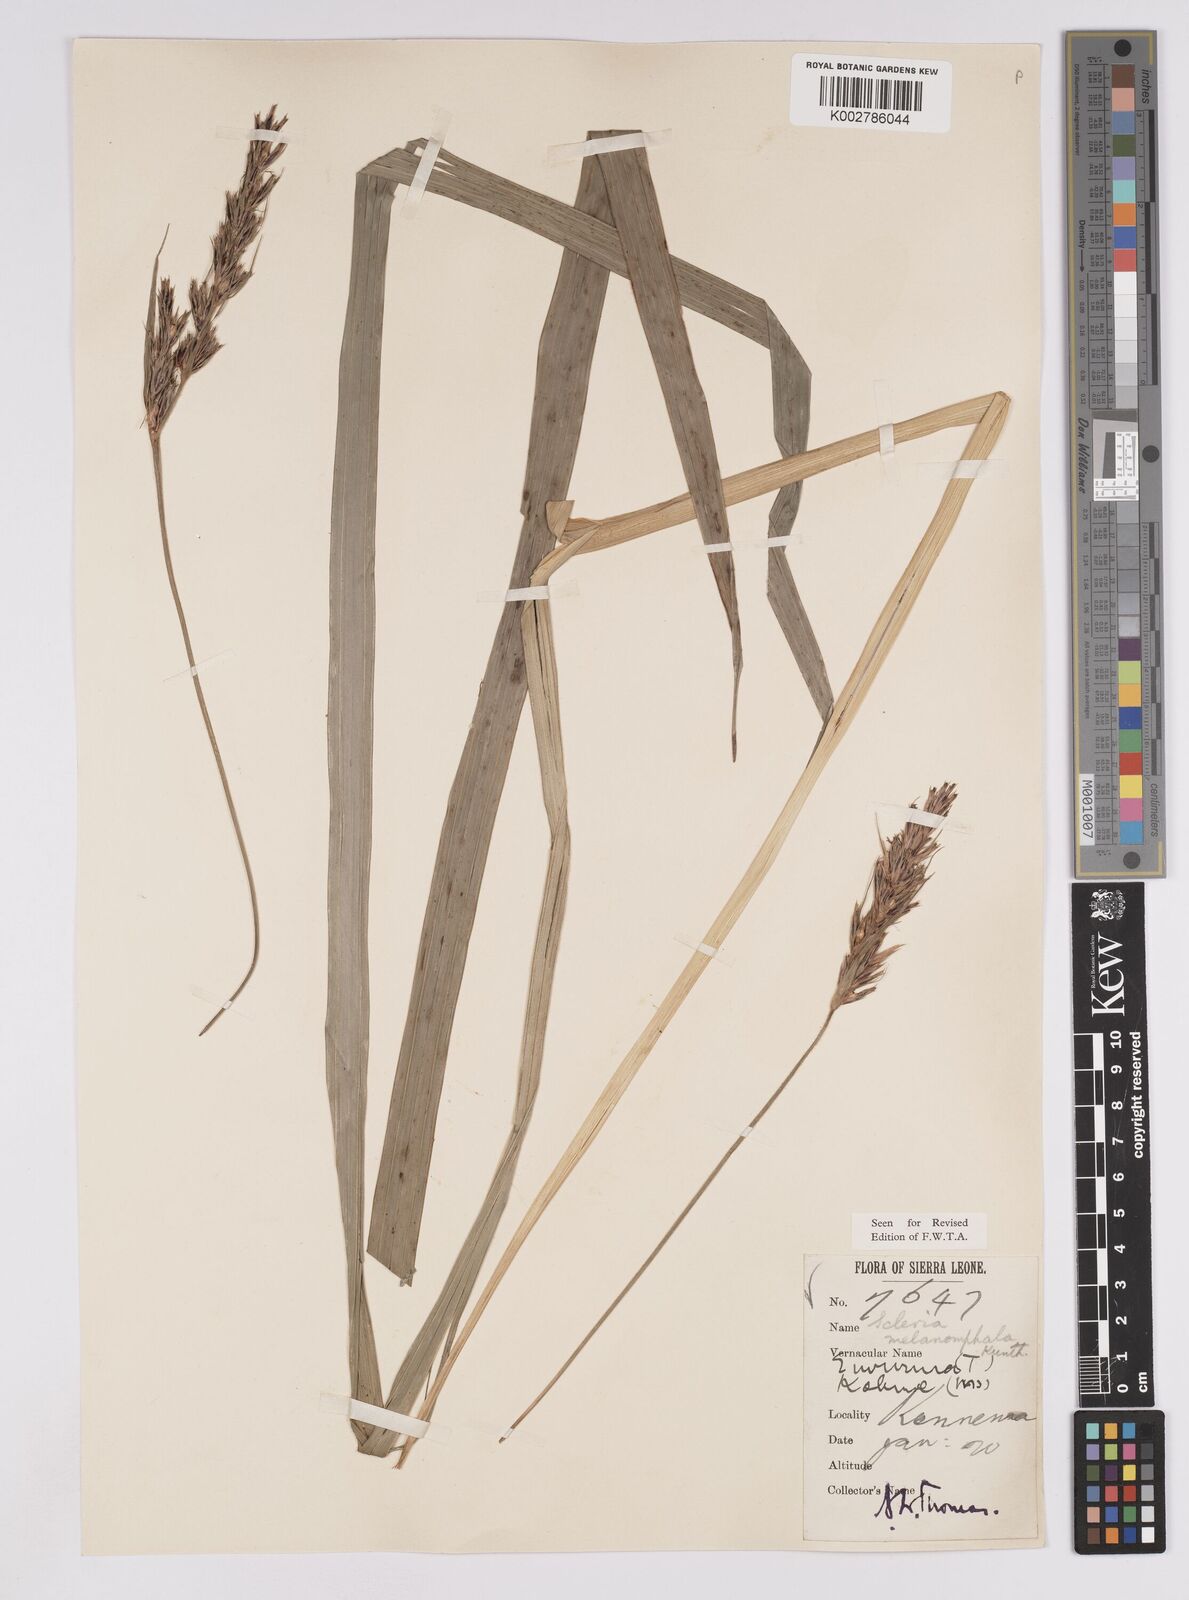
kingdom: Plantae
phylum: Tracheophyta
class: Liliopsida
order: Poales
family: Cyperaceae
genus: Scleria
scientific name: Scleria melanomphala
